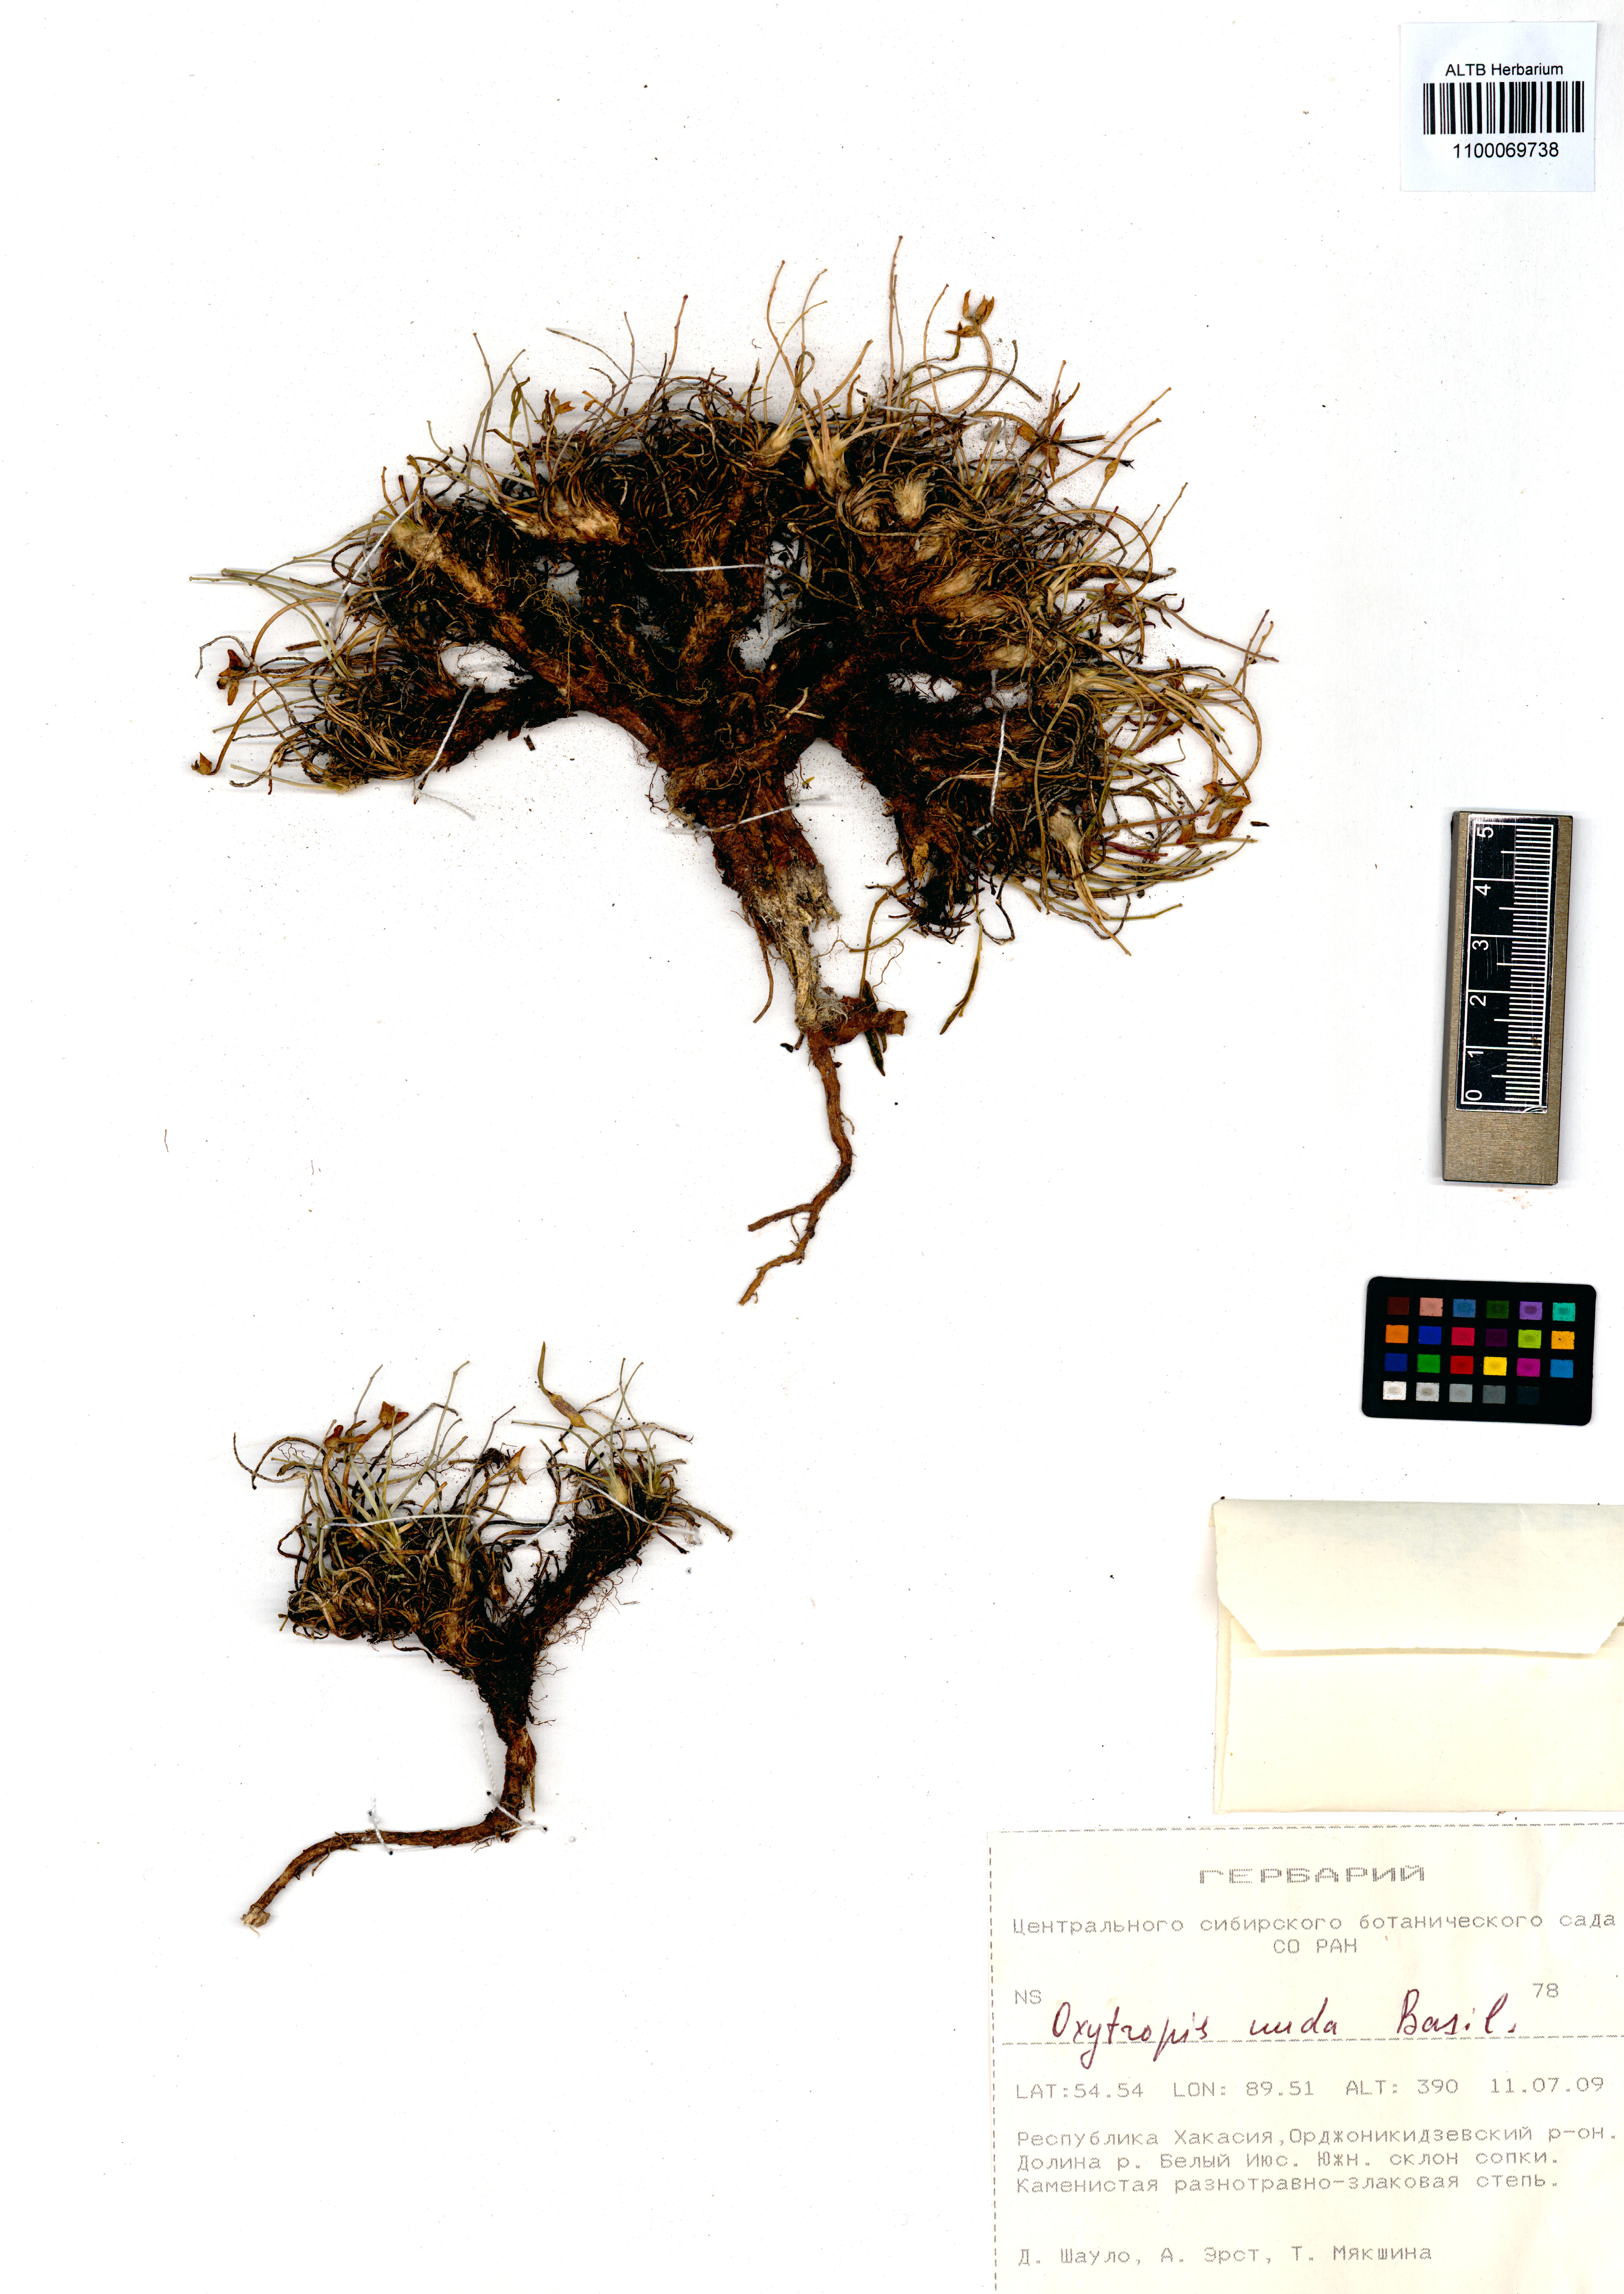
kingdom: Plantae
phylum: Tracheophyta
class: Magnoliopsida
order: Fabales
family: Fabaceae
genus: Oxytropis
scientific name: Oxytropis nuda
